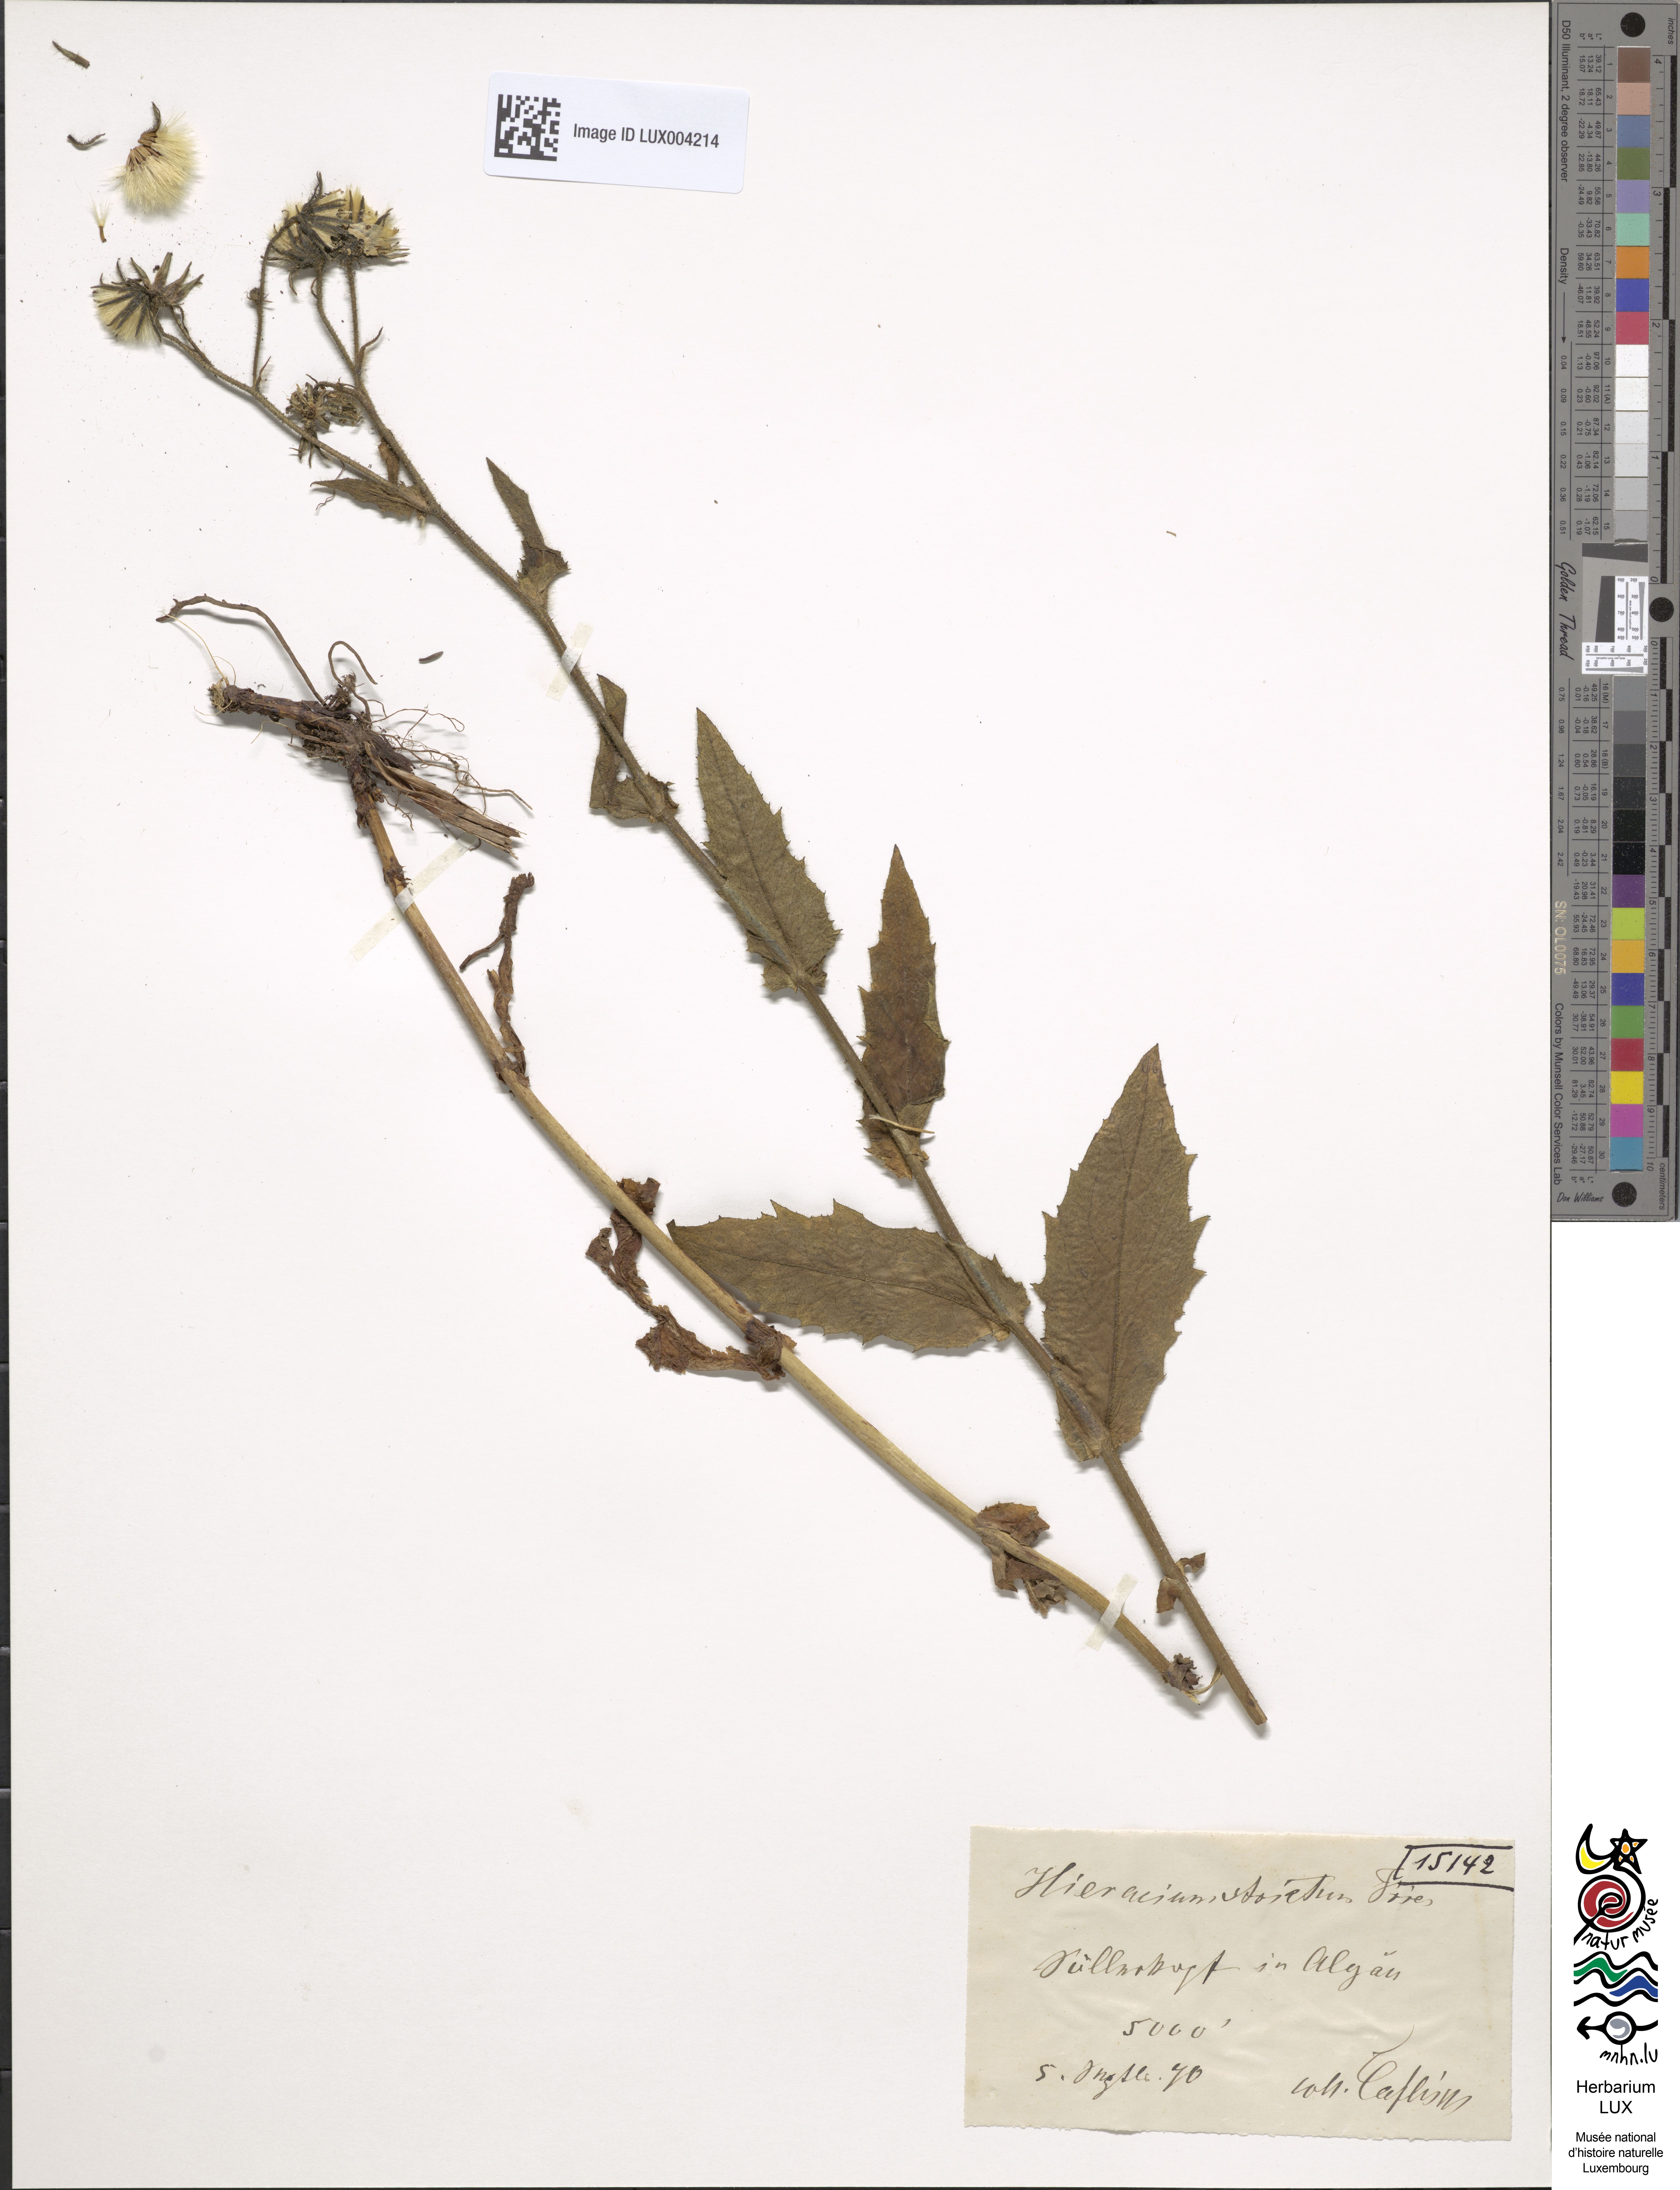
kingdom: Plantae
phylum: Tracheophyta
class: Magnoliopsida
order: Asterales
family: Asteraceae
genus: Hieracium
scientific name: Hieracium prenanthoides
